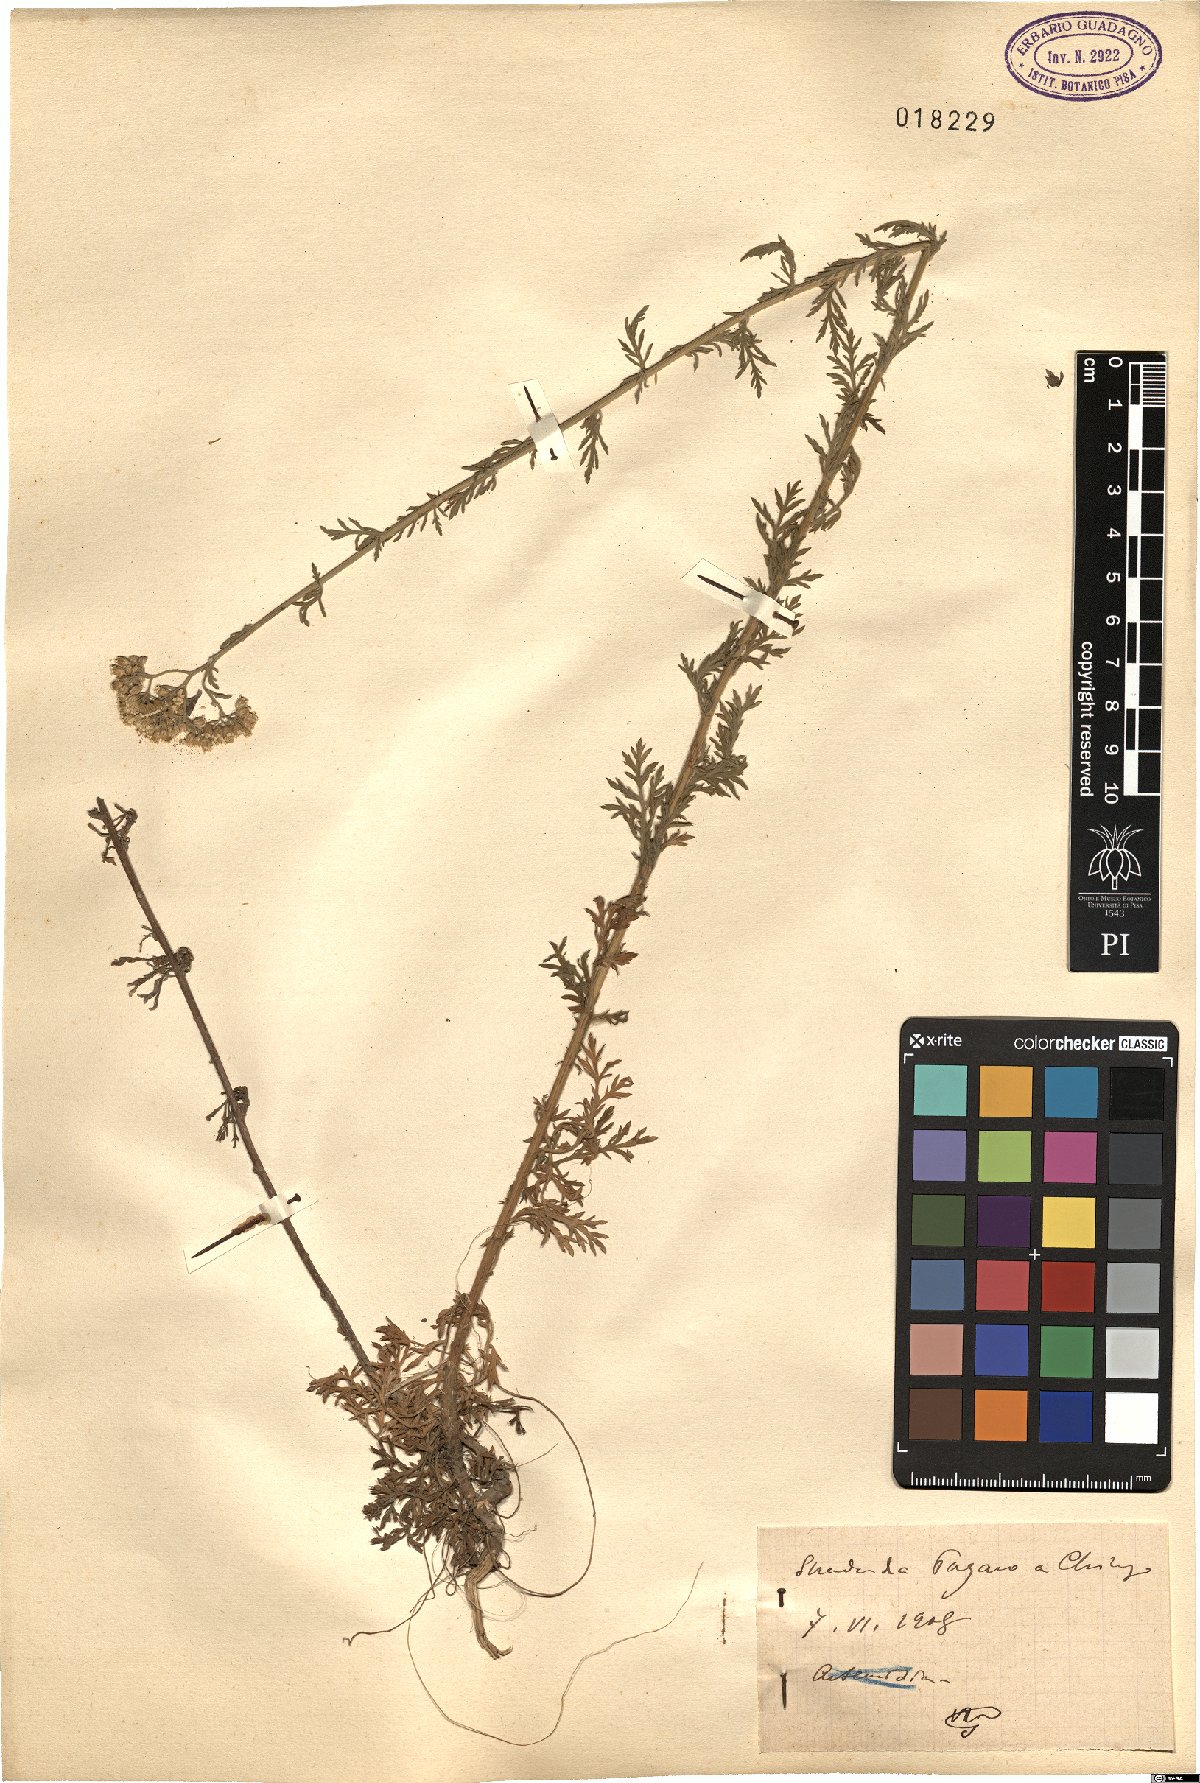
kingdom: Plantae
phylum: Tracheophyta
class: Magnoliopsida
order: Asterales
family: Asteraceae
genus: Achillea
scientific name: Achillea
